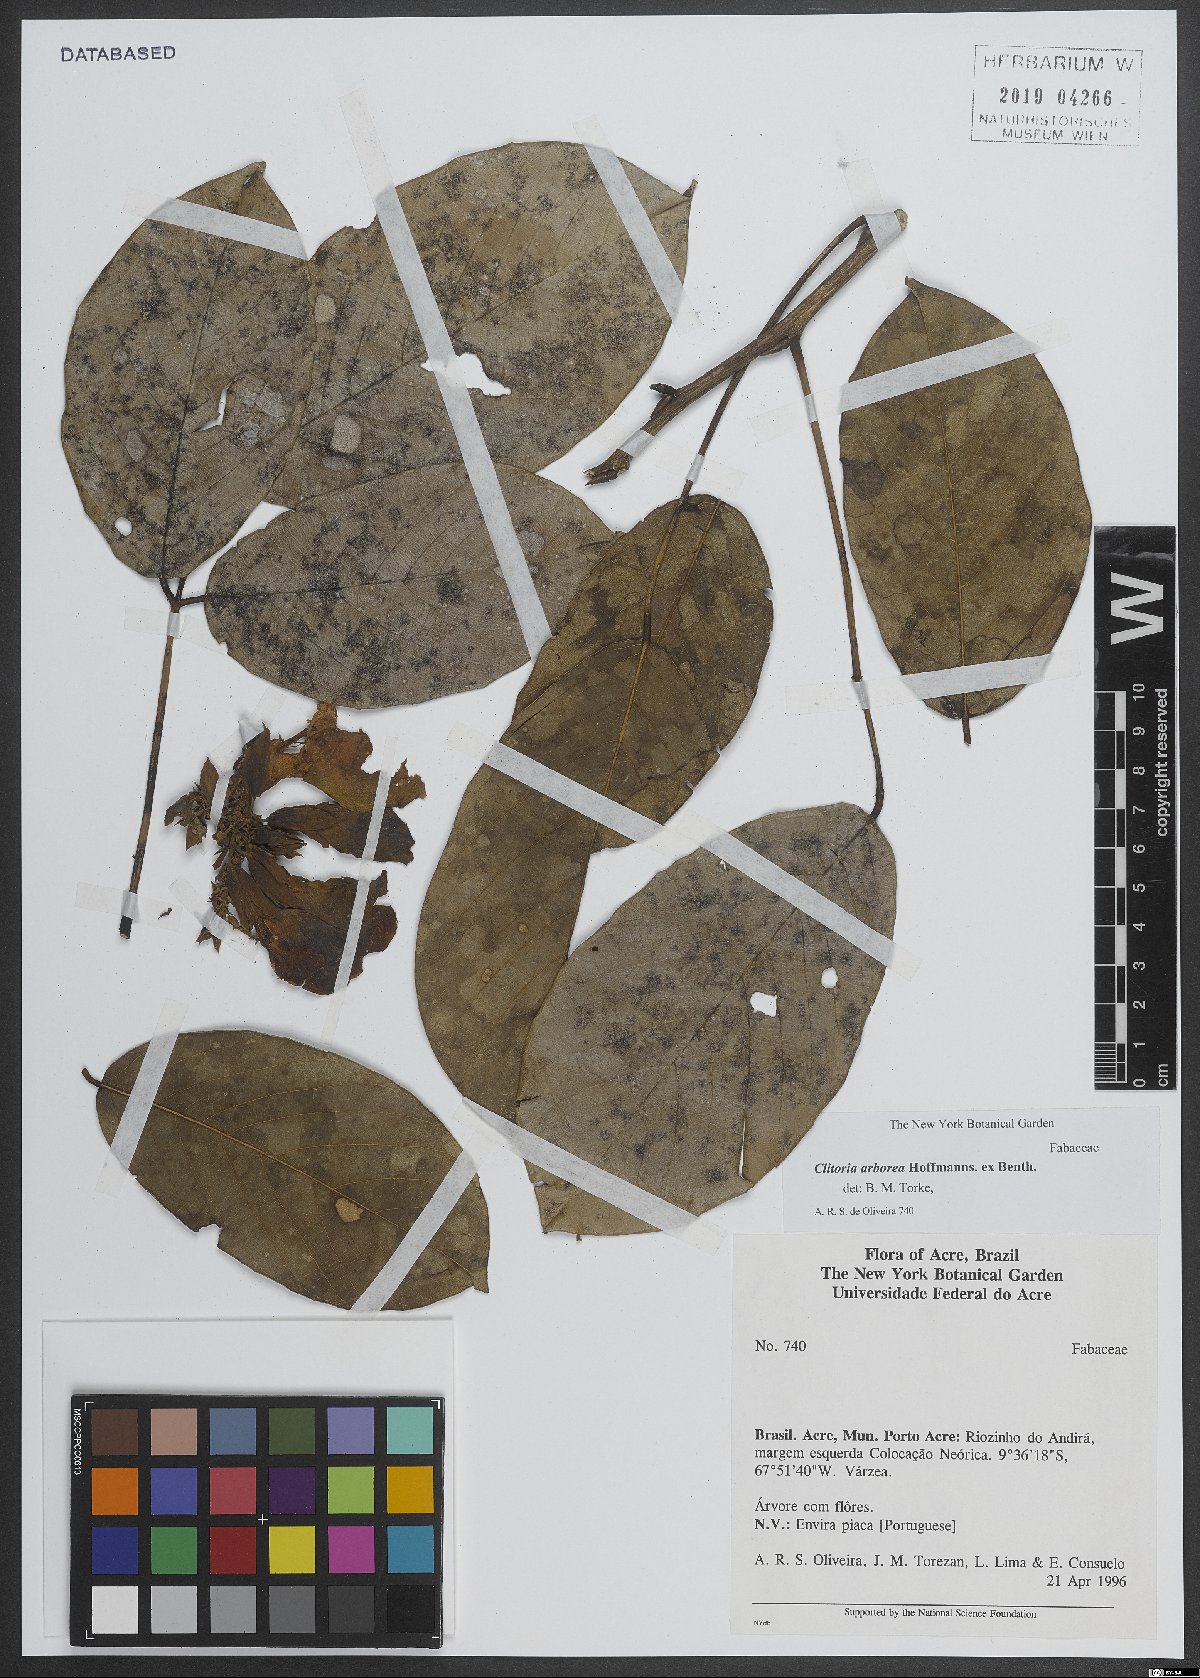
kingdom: Plantae
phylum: Tracheophyta
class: Magnoliopsida
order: Fabales
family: Fabaceae
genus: Clitoria
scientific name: Clitoria arborea
